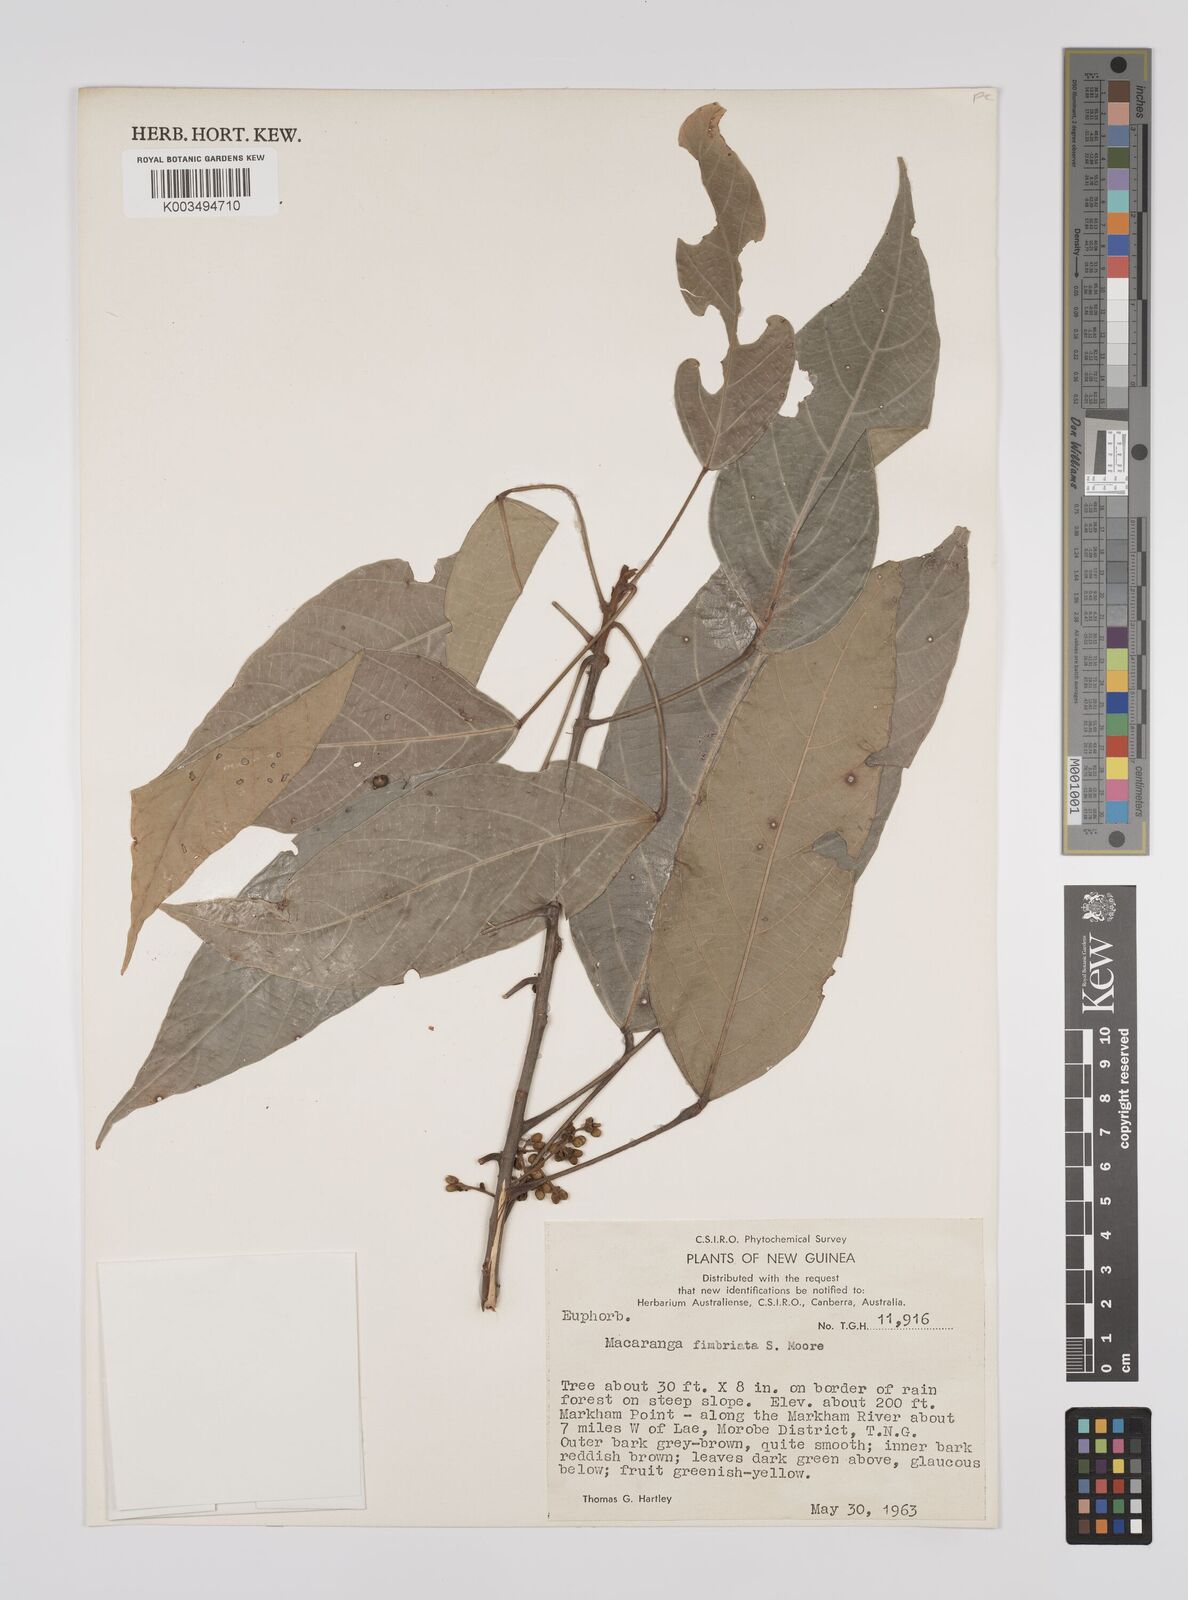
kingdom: Plantae
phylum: Tracheophyta
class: Magnoliopsida
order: Malpighiales
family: Euphorbiaceae
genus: Macaranga
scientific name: Macaranga polyadenia
